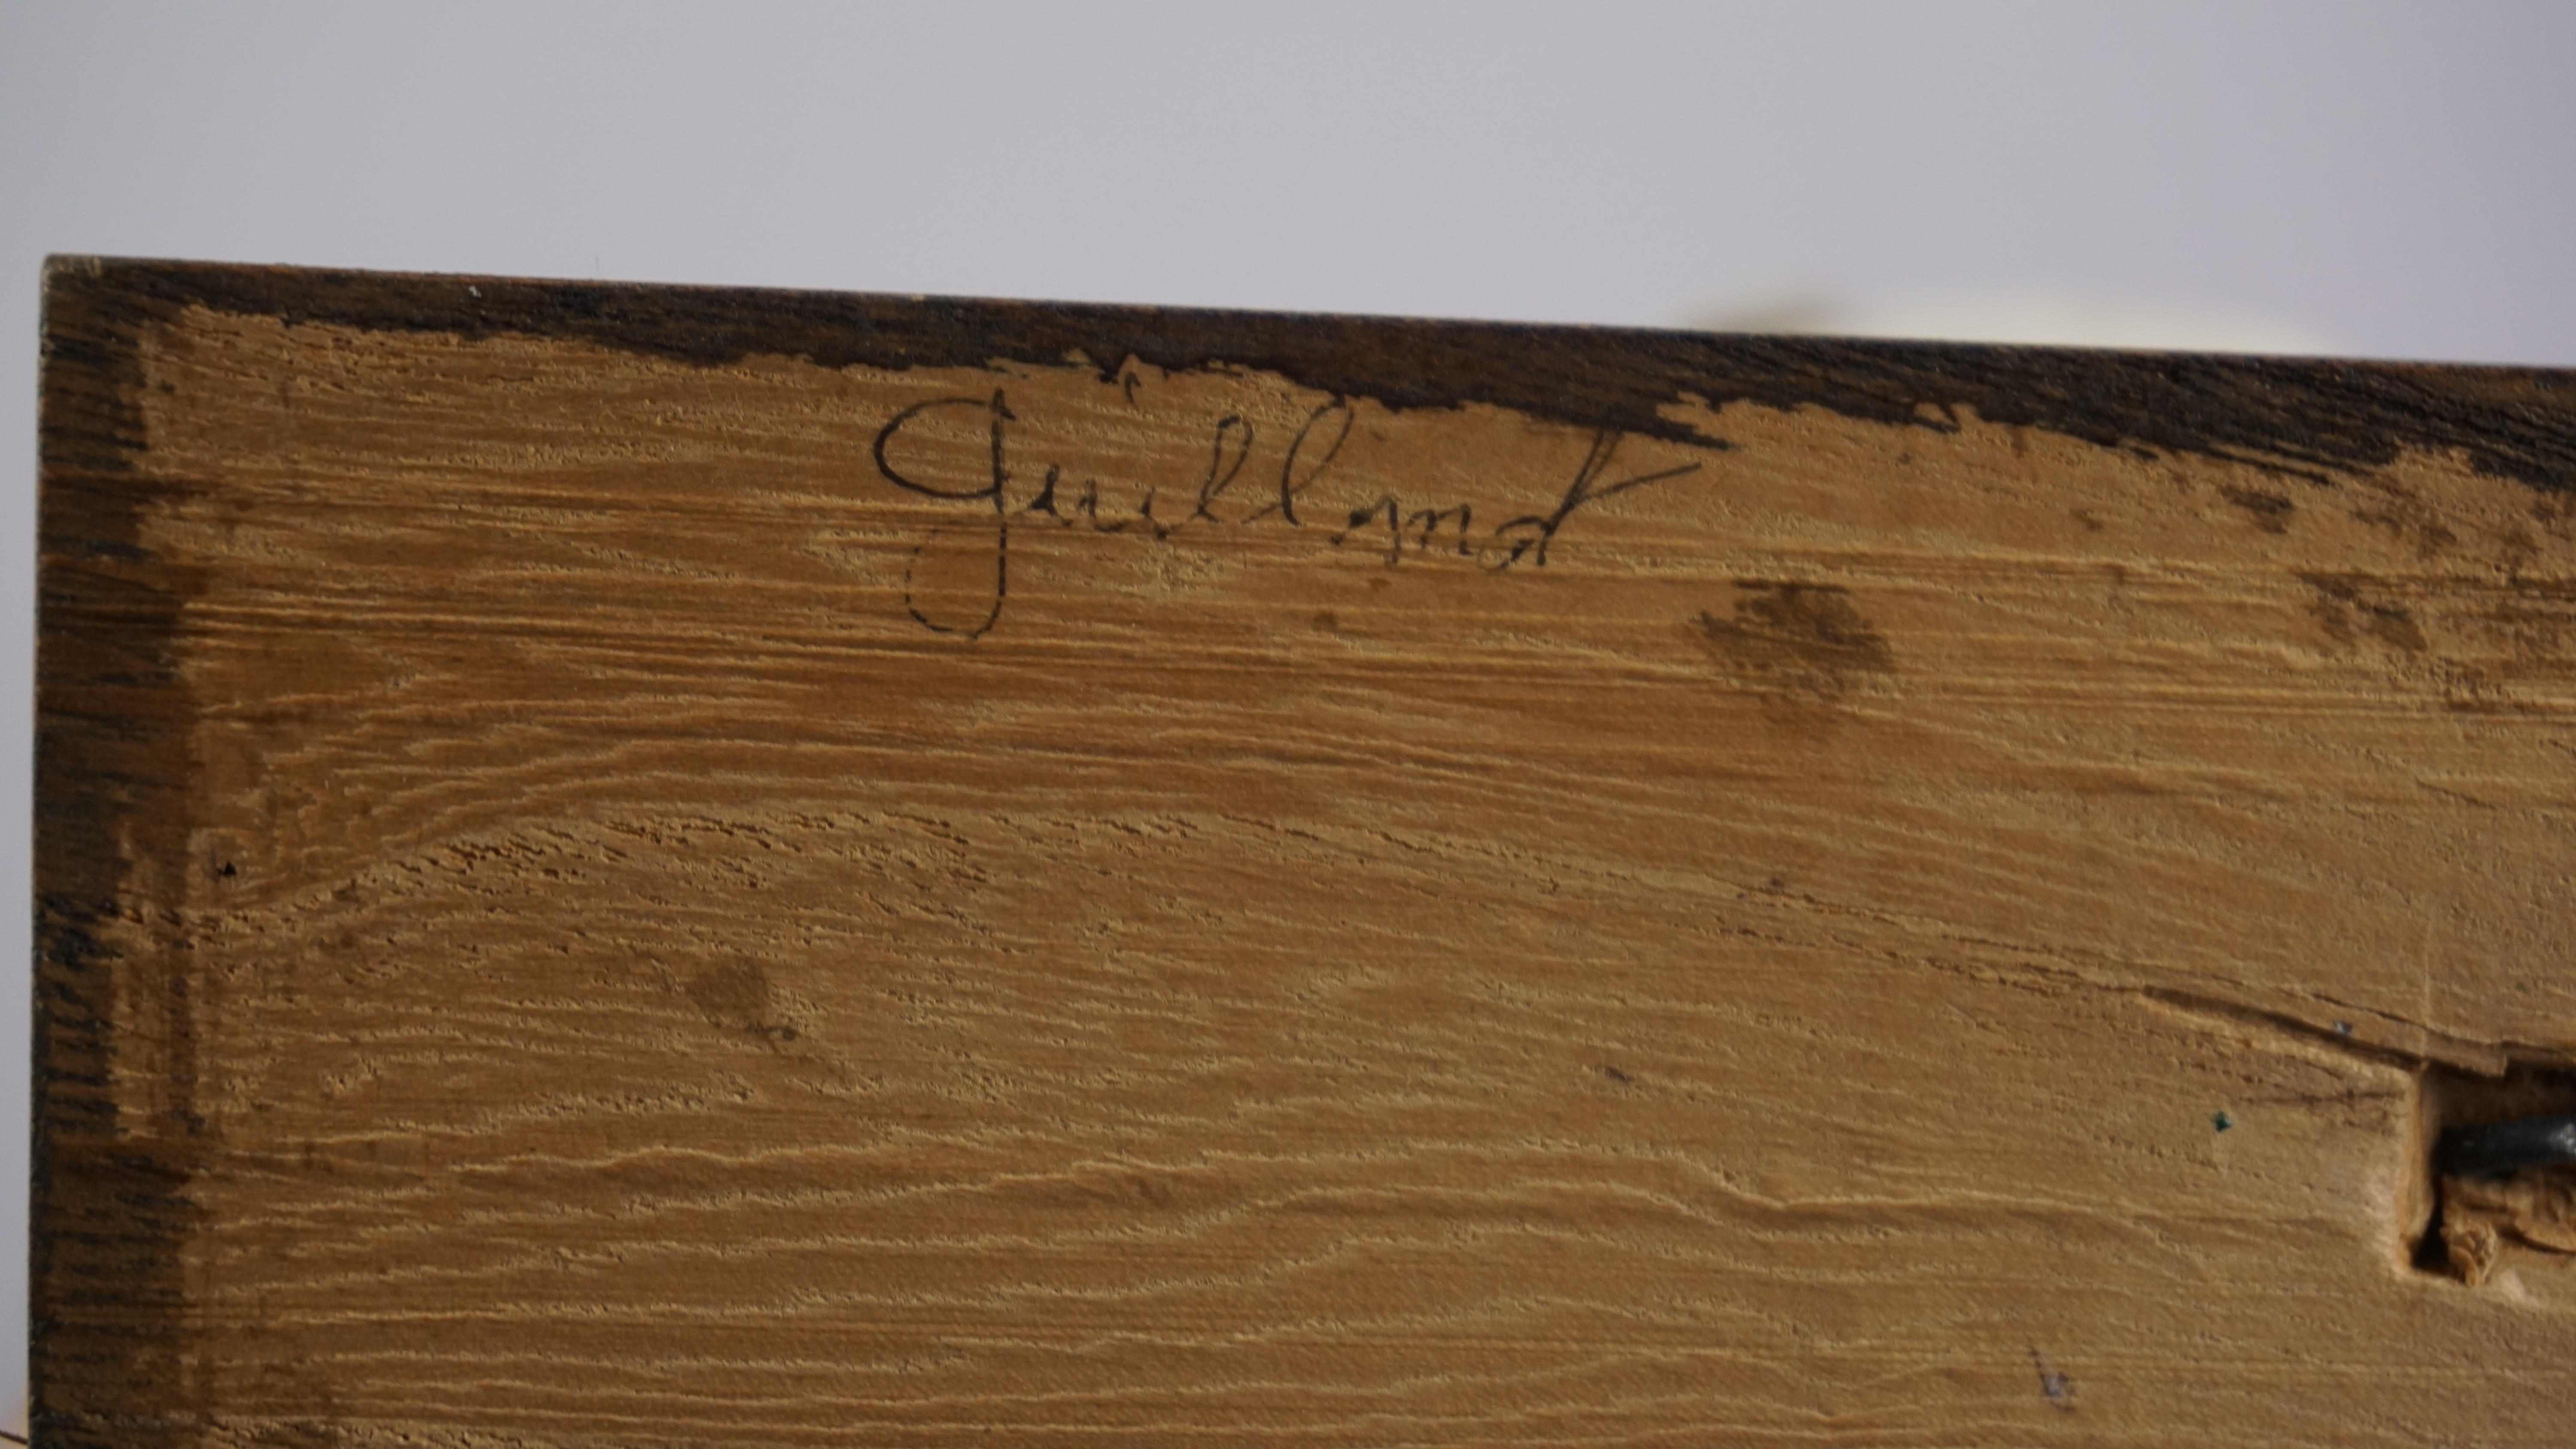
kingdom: Animalia
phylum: Chordata
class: Aves
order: Charadriiformes
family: Alcidae
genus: Uria
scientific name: Uria aalge
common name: Common murre
